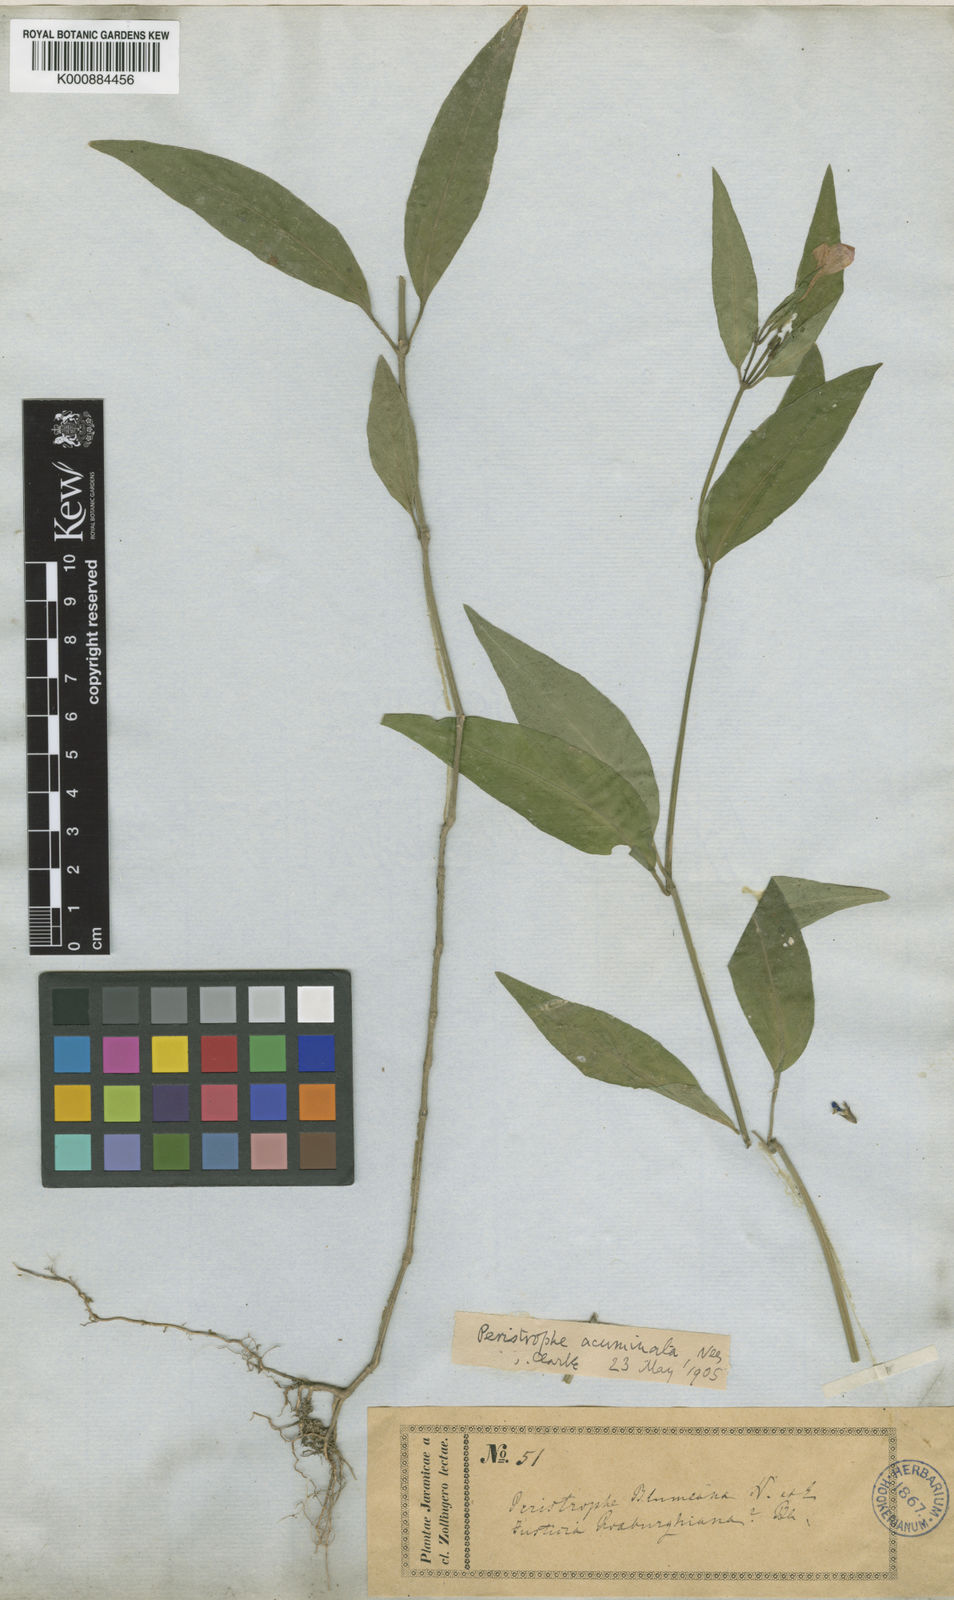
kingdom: Plantae
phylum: Tracheophyta
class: Magnoliopsida
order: Lamiales
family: Acanthaceae
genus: Dicliptera
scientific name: Dicliptera
